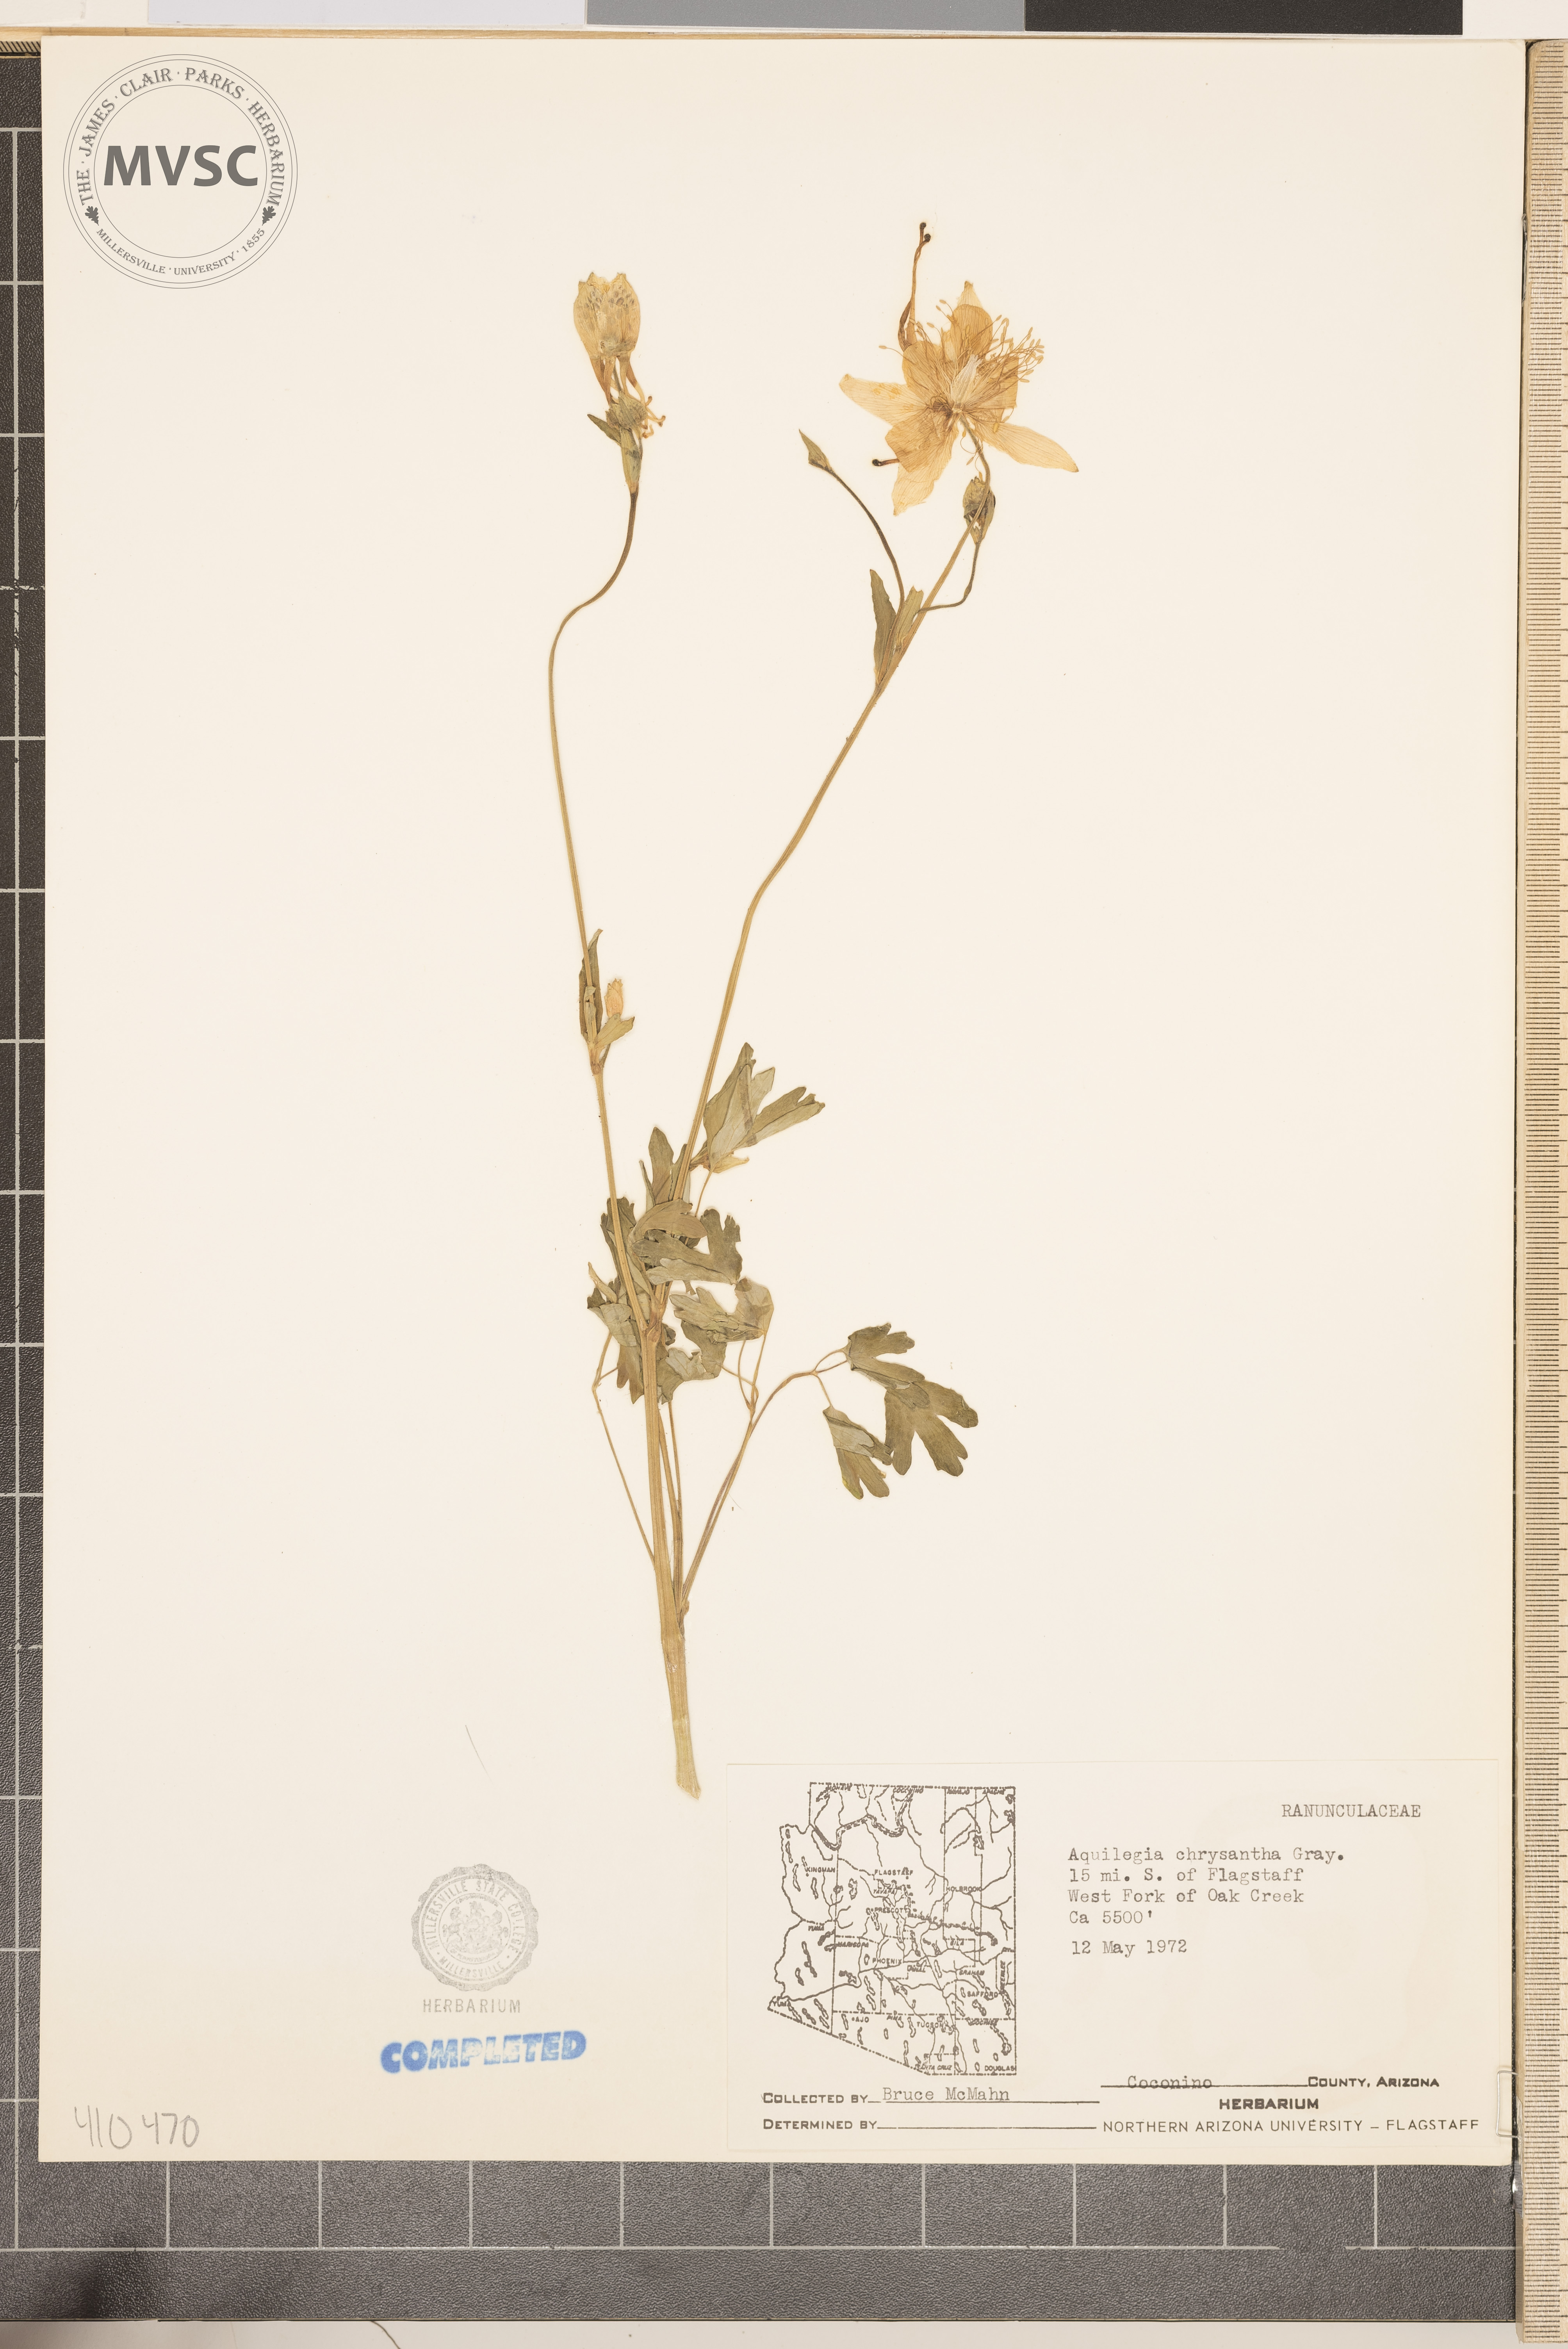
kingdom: Plantae
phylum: Tracheophyta
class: Magnoliopsida
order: Ranunculales
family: Ranunculaceae
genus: Aquilegia
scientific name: Aquilegia chrysantha
